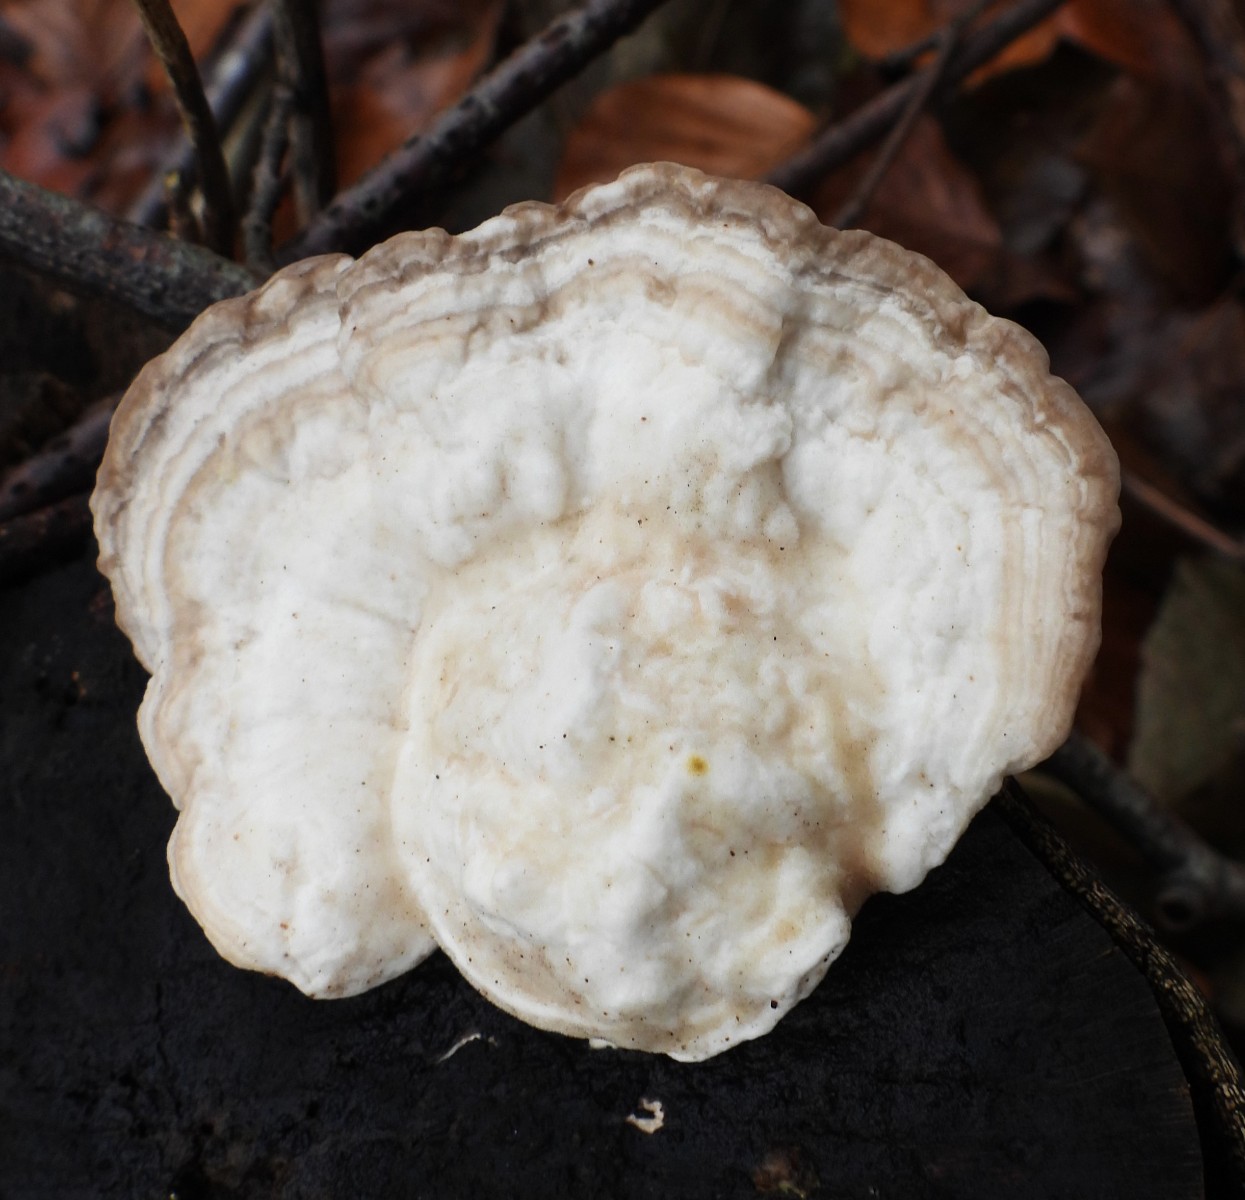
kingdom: Fungi
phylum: Basidiomycota
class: Agaricomycetes
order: Polyporales
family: Polyporaceae
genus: Trametes
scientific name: Trametes gibbosa
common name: puklet læderporesvamp
